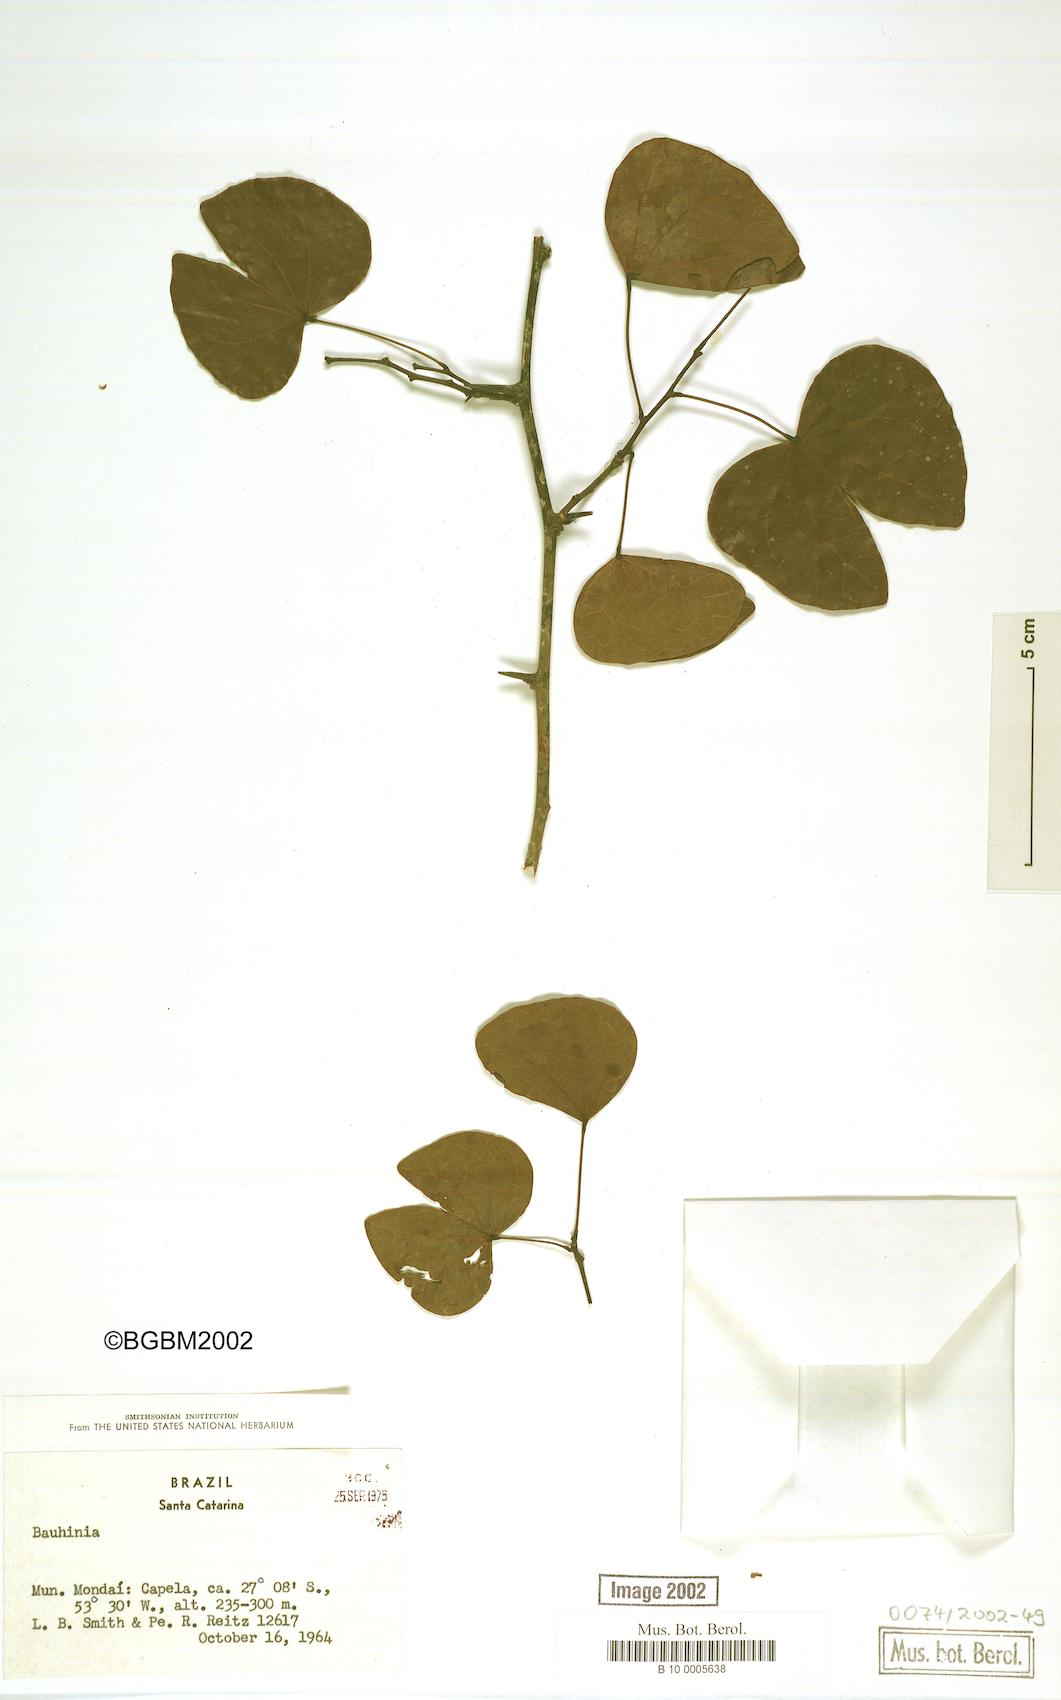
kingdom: Plantae
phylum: Tracheophyta
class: Magnoliopsida
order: Fabales
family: Fabaceae
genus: Bauhinia
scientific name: Bauhinia
